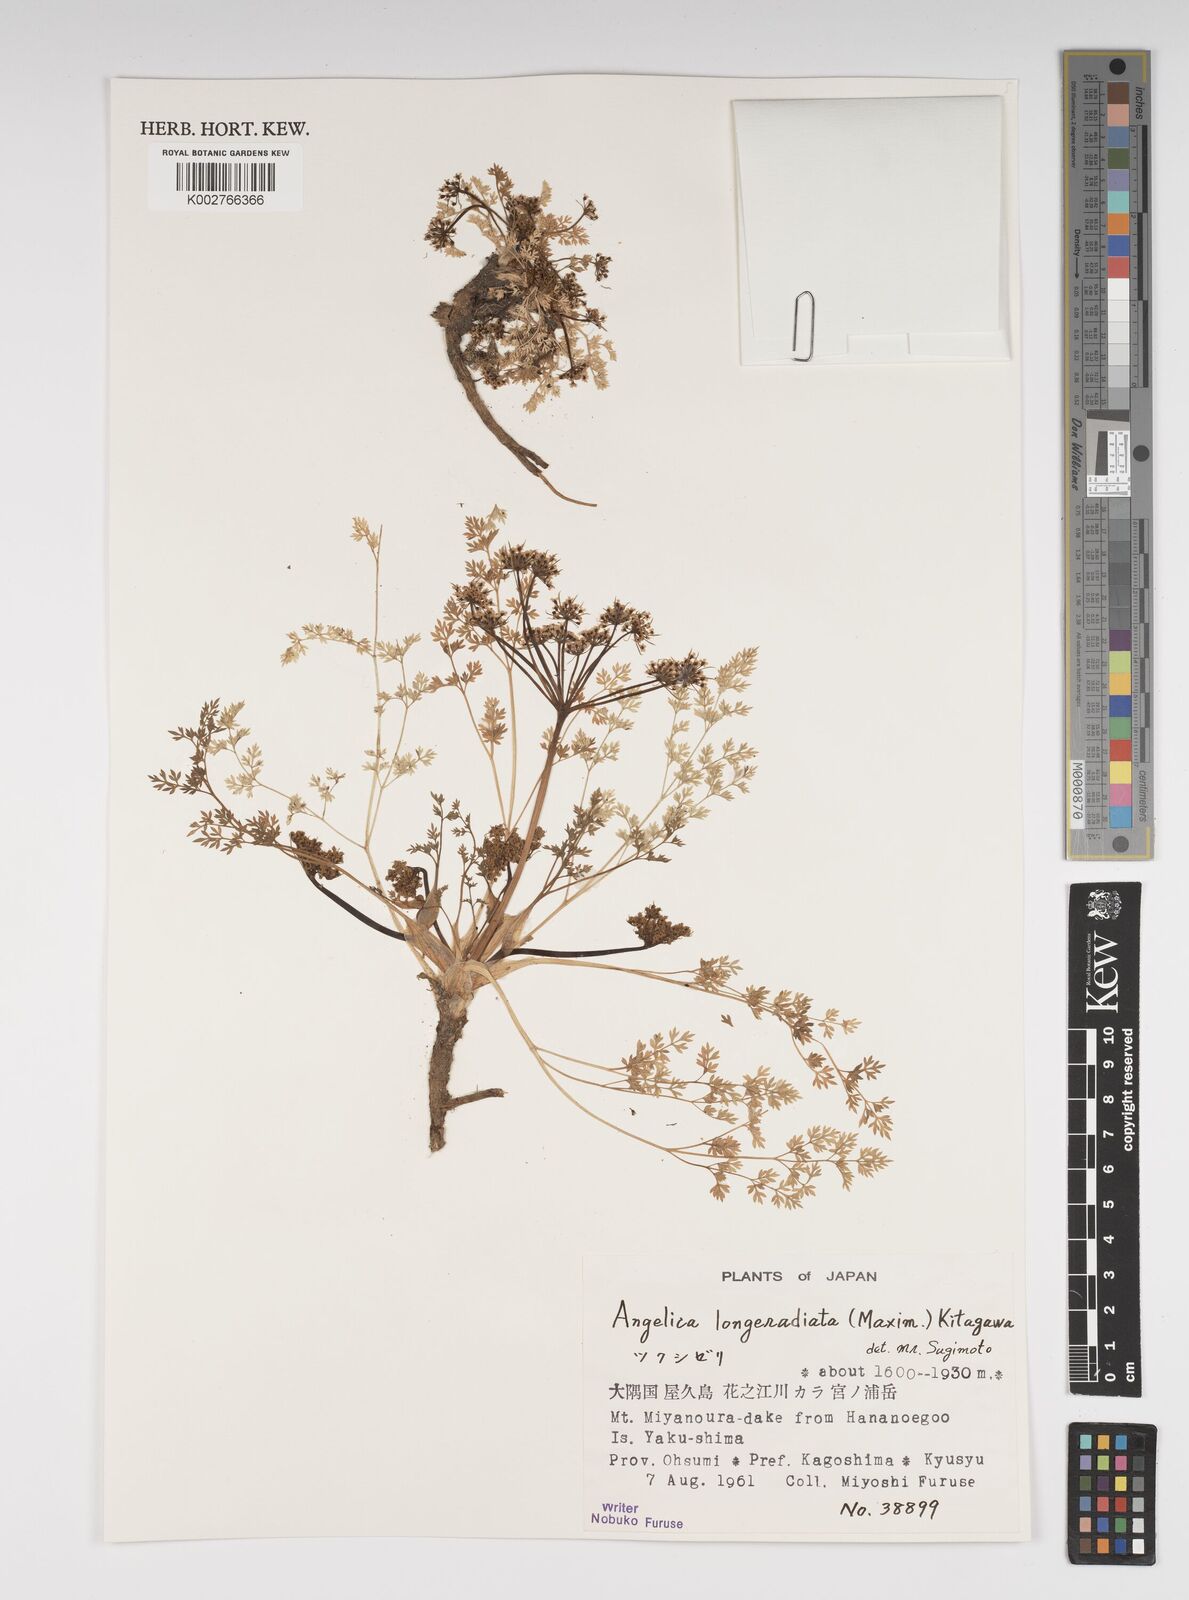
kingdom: Plantae
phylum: Tracheophyta
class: Magnoliopsida
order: Apiales
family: Apiaceae
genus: Angelica
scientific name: Angelica longeradiata
